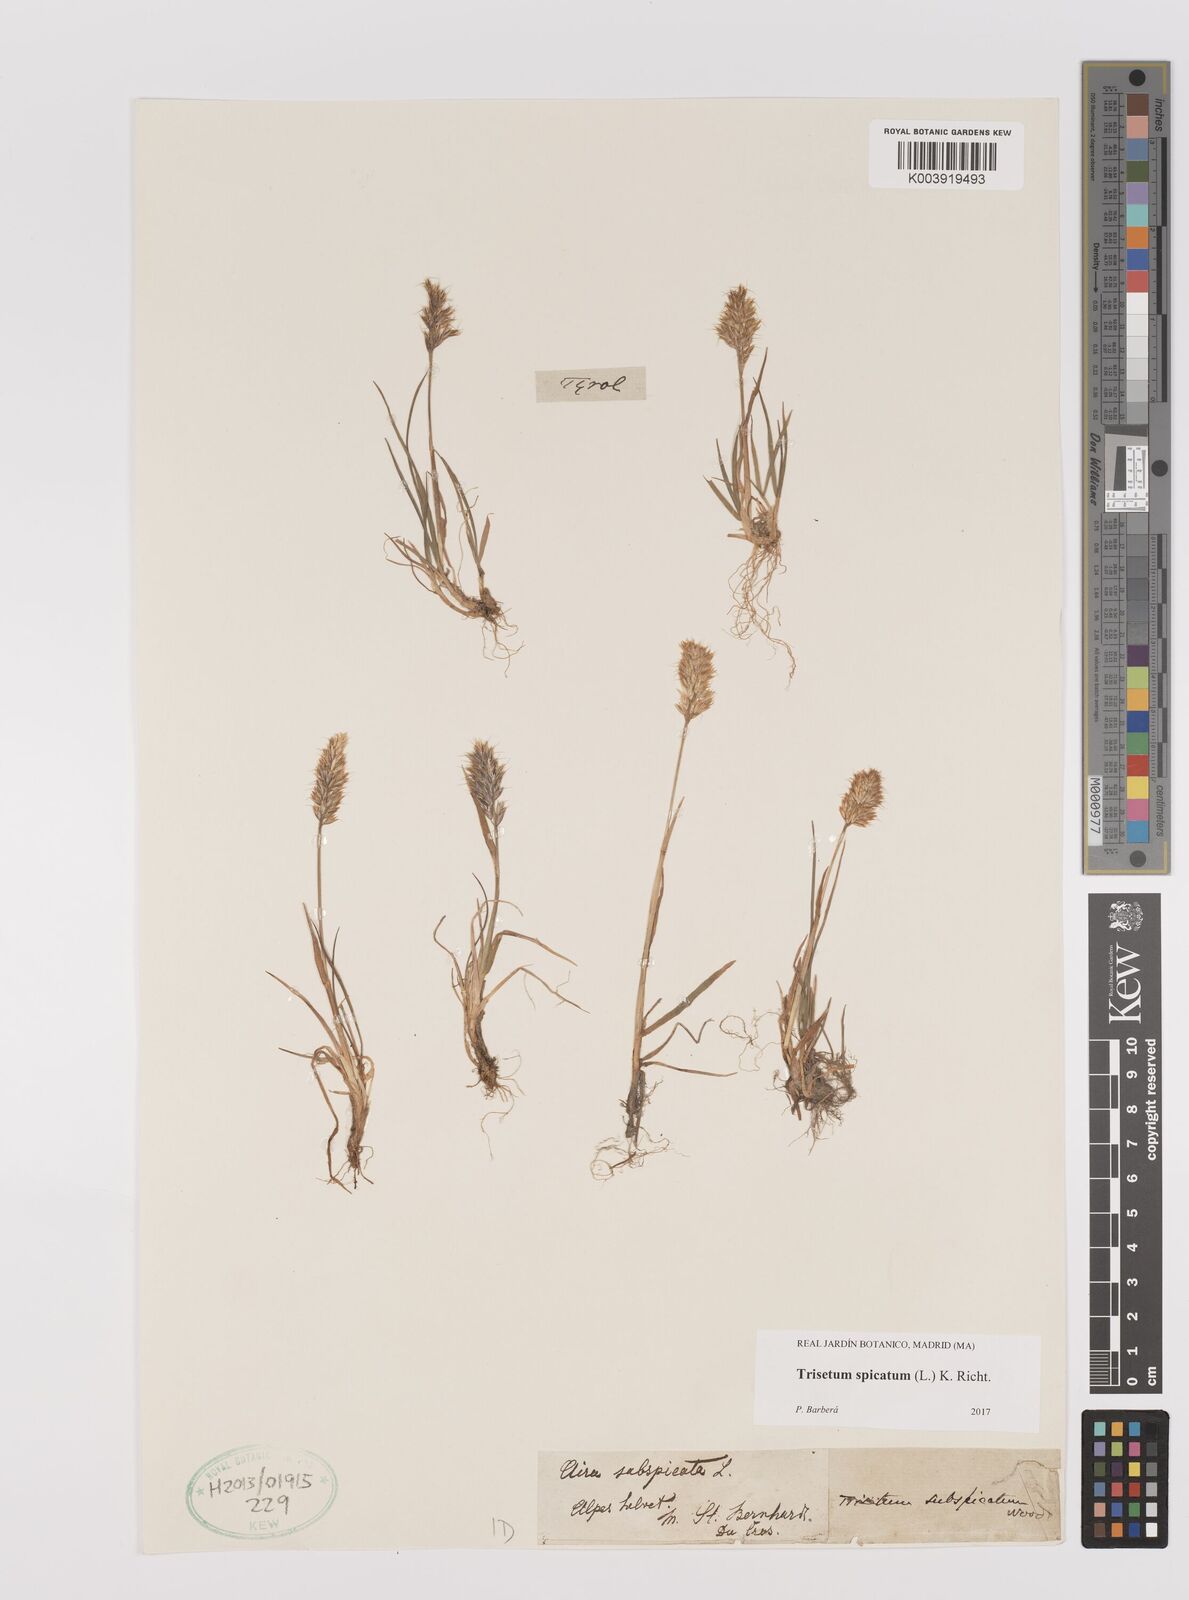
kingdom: Plantae
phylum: Tracheophyta
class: Liliopsida
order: Poales
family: Poaceae
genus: Koeleria
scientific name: Koeleria spicata
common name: Mountain trisetum
